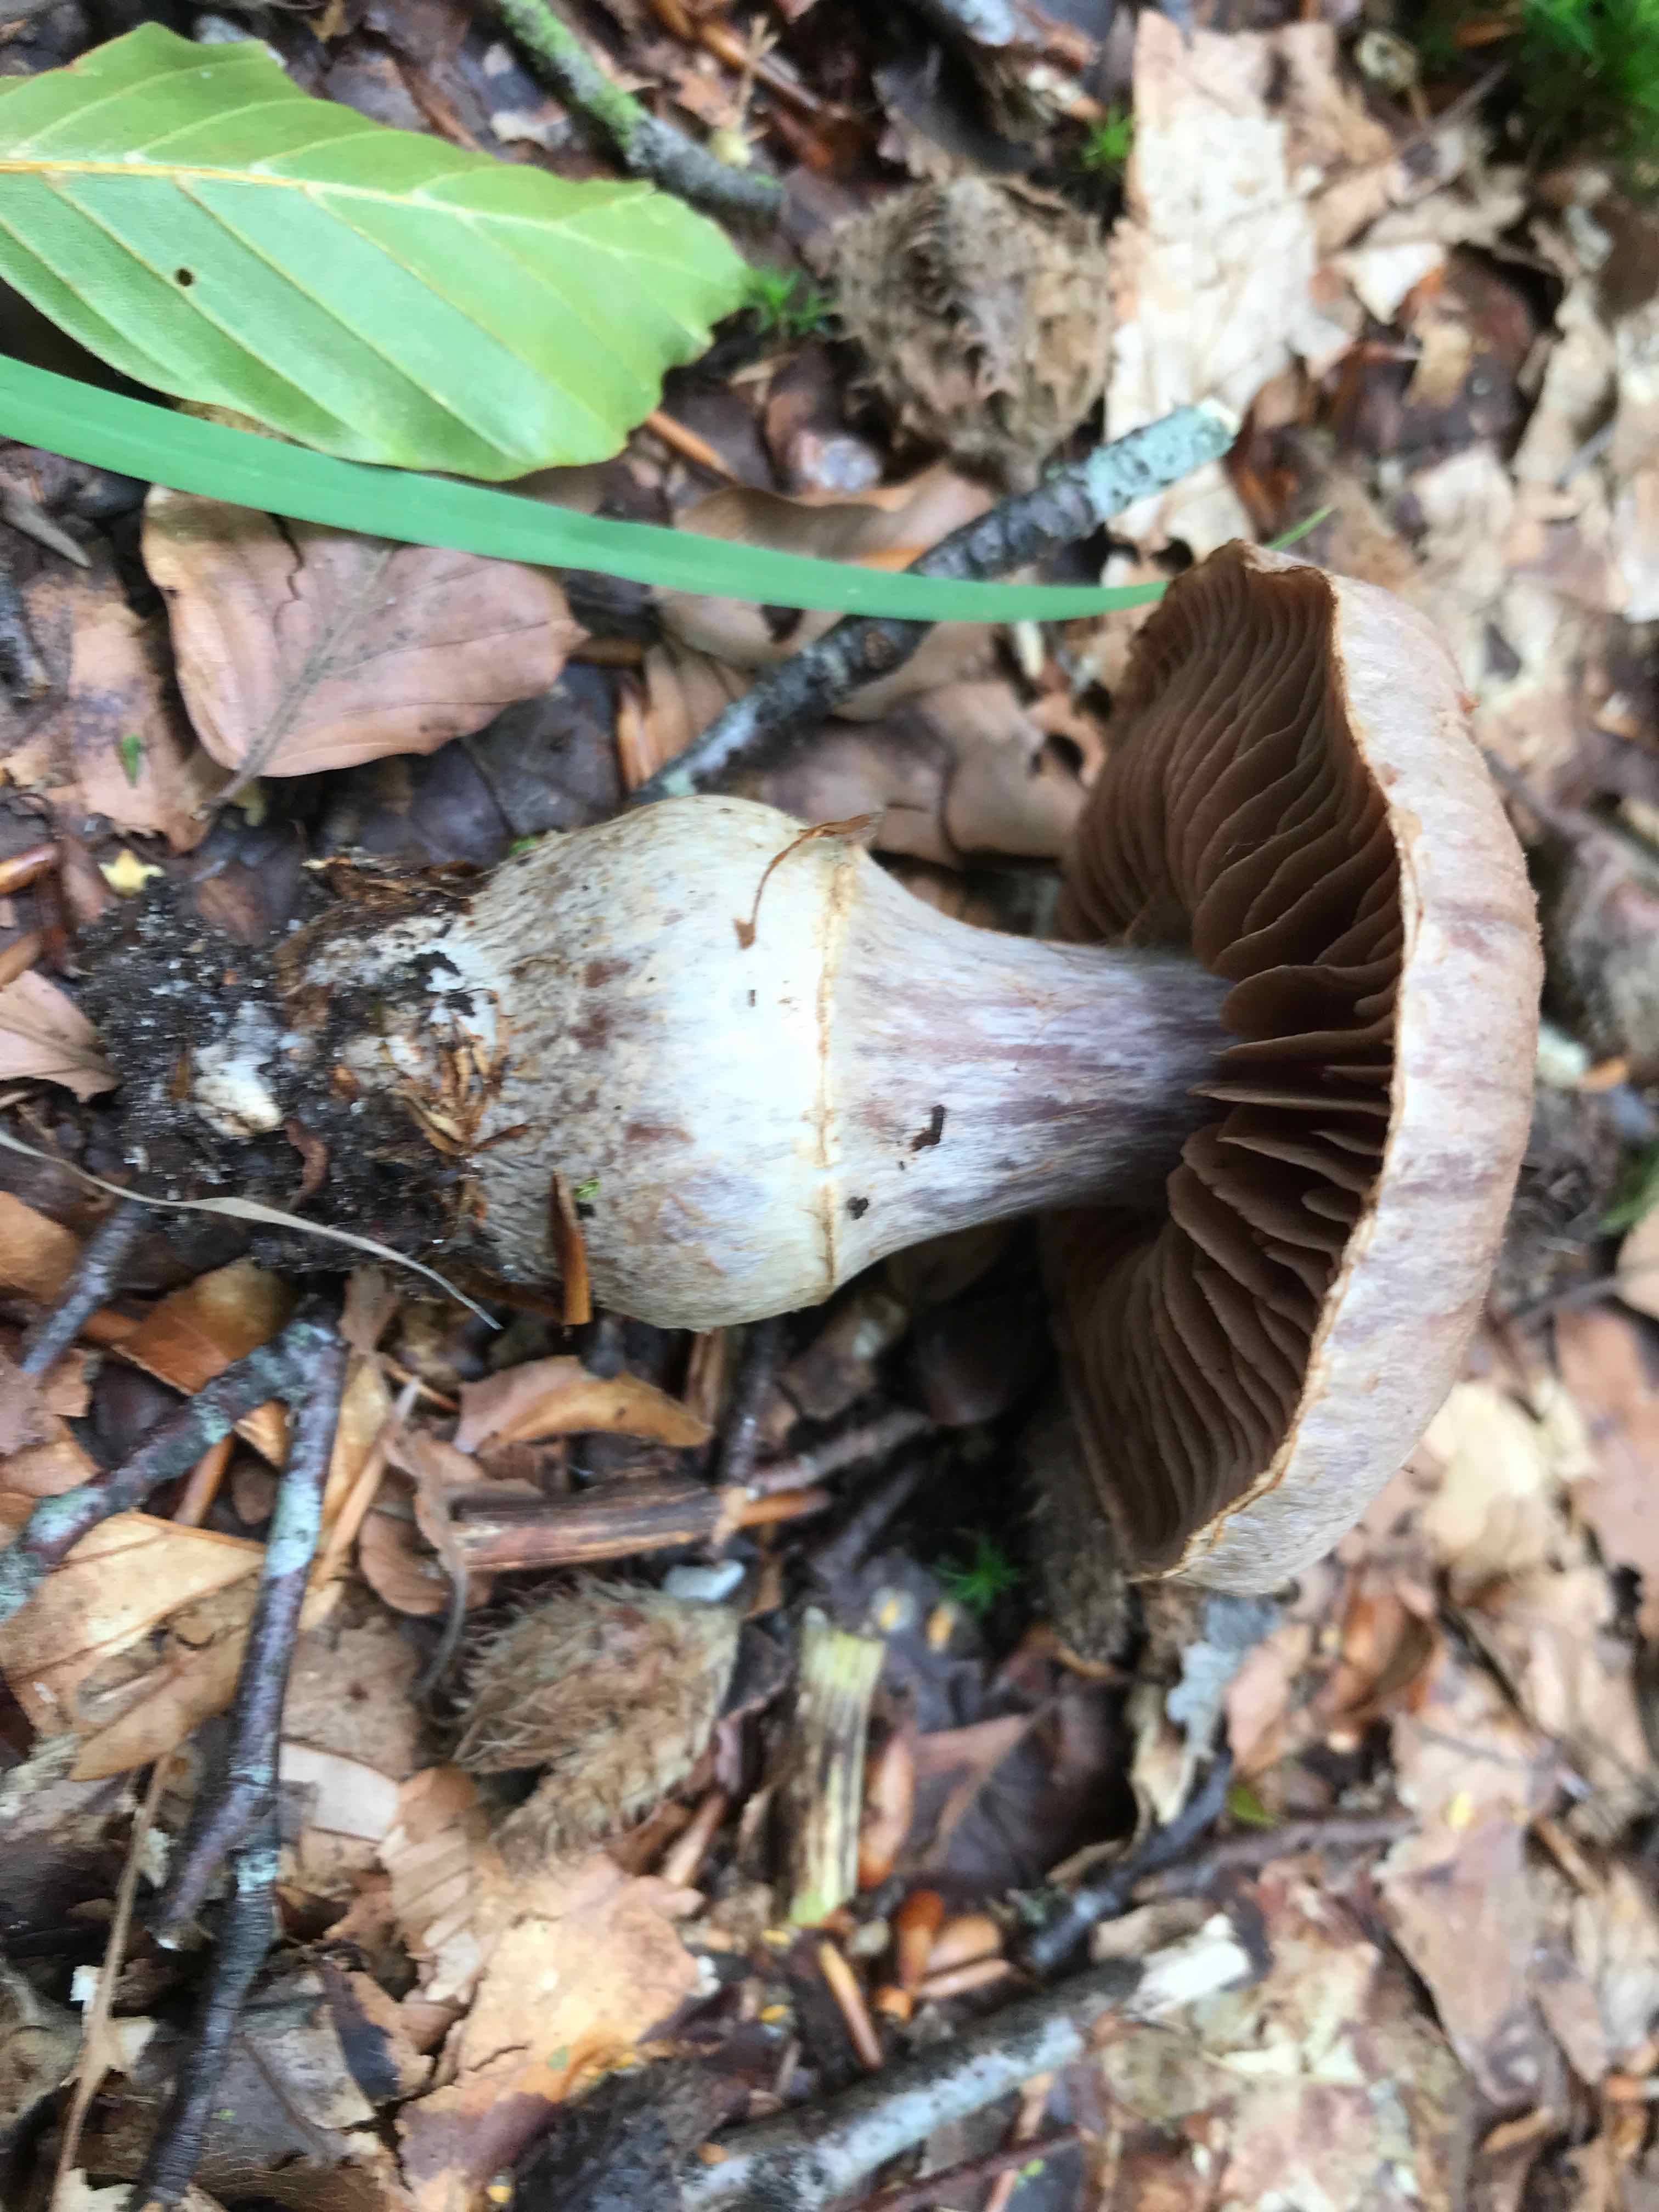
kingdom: Fungi
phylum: Basidiomycota
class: Agaricomycetes
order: Agaricales
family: Cortinariaceae
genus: Cortinarius
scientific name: Cortinarius torvus
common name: champignonagtig slørhat
